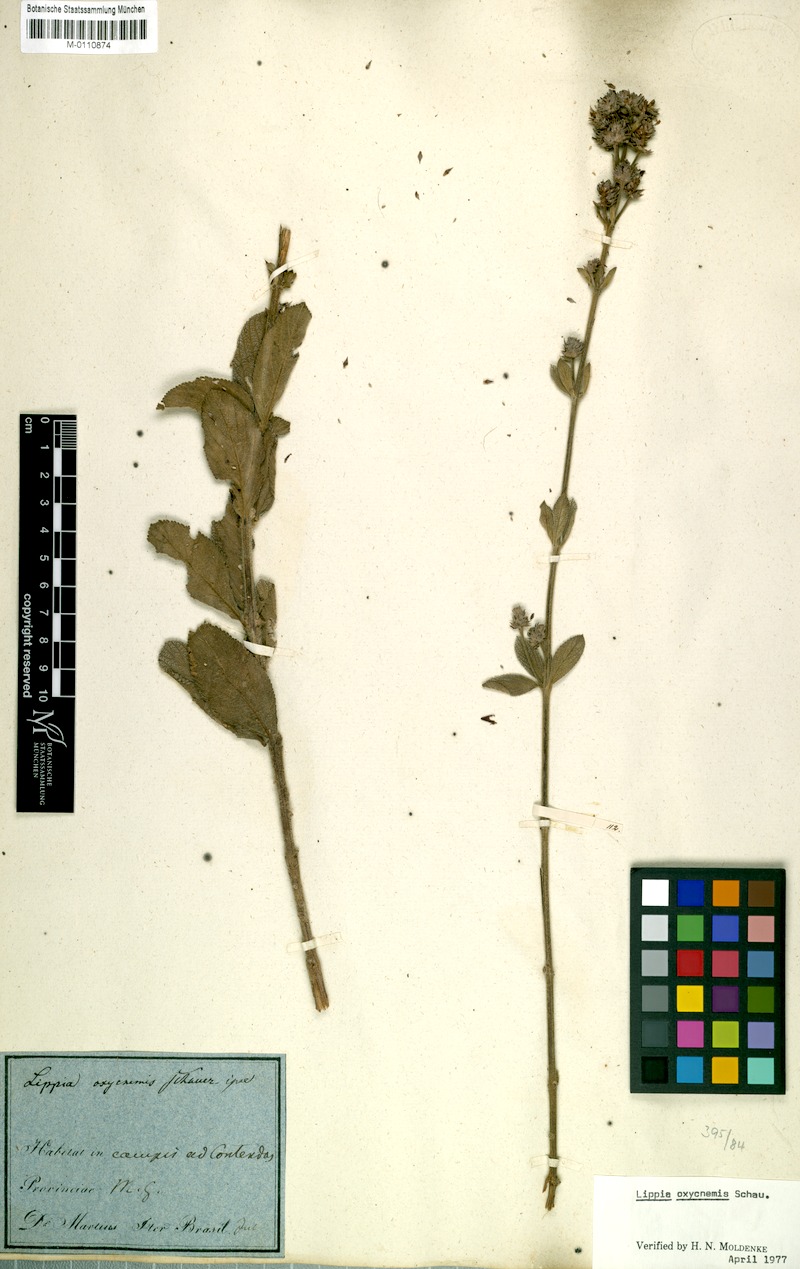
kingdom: Plantae
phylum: Tracheophyta
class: Magnoliopsida
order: Lamiales
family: Verbenaceae
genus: Lippia
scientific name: Lippia oxycnemis
